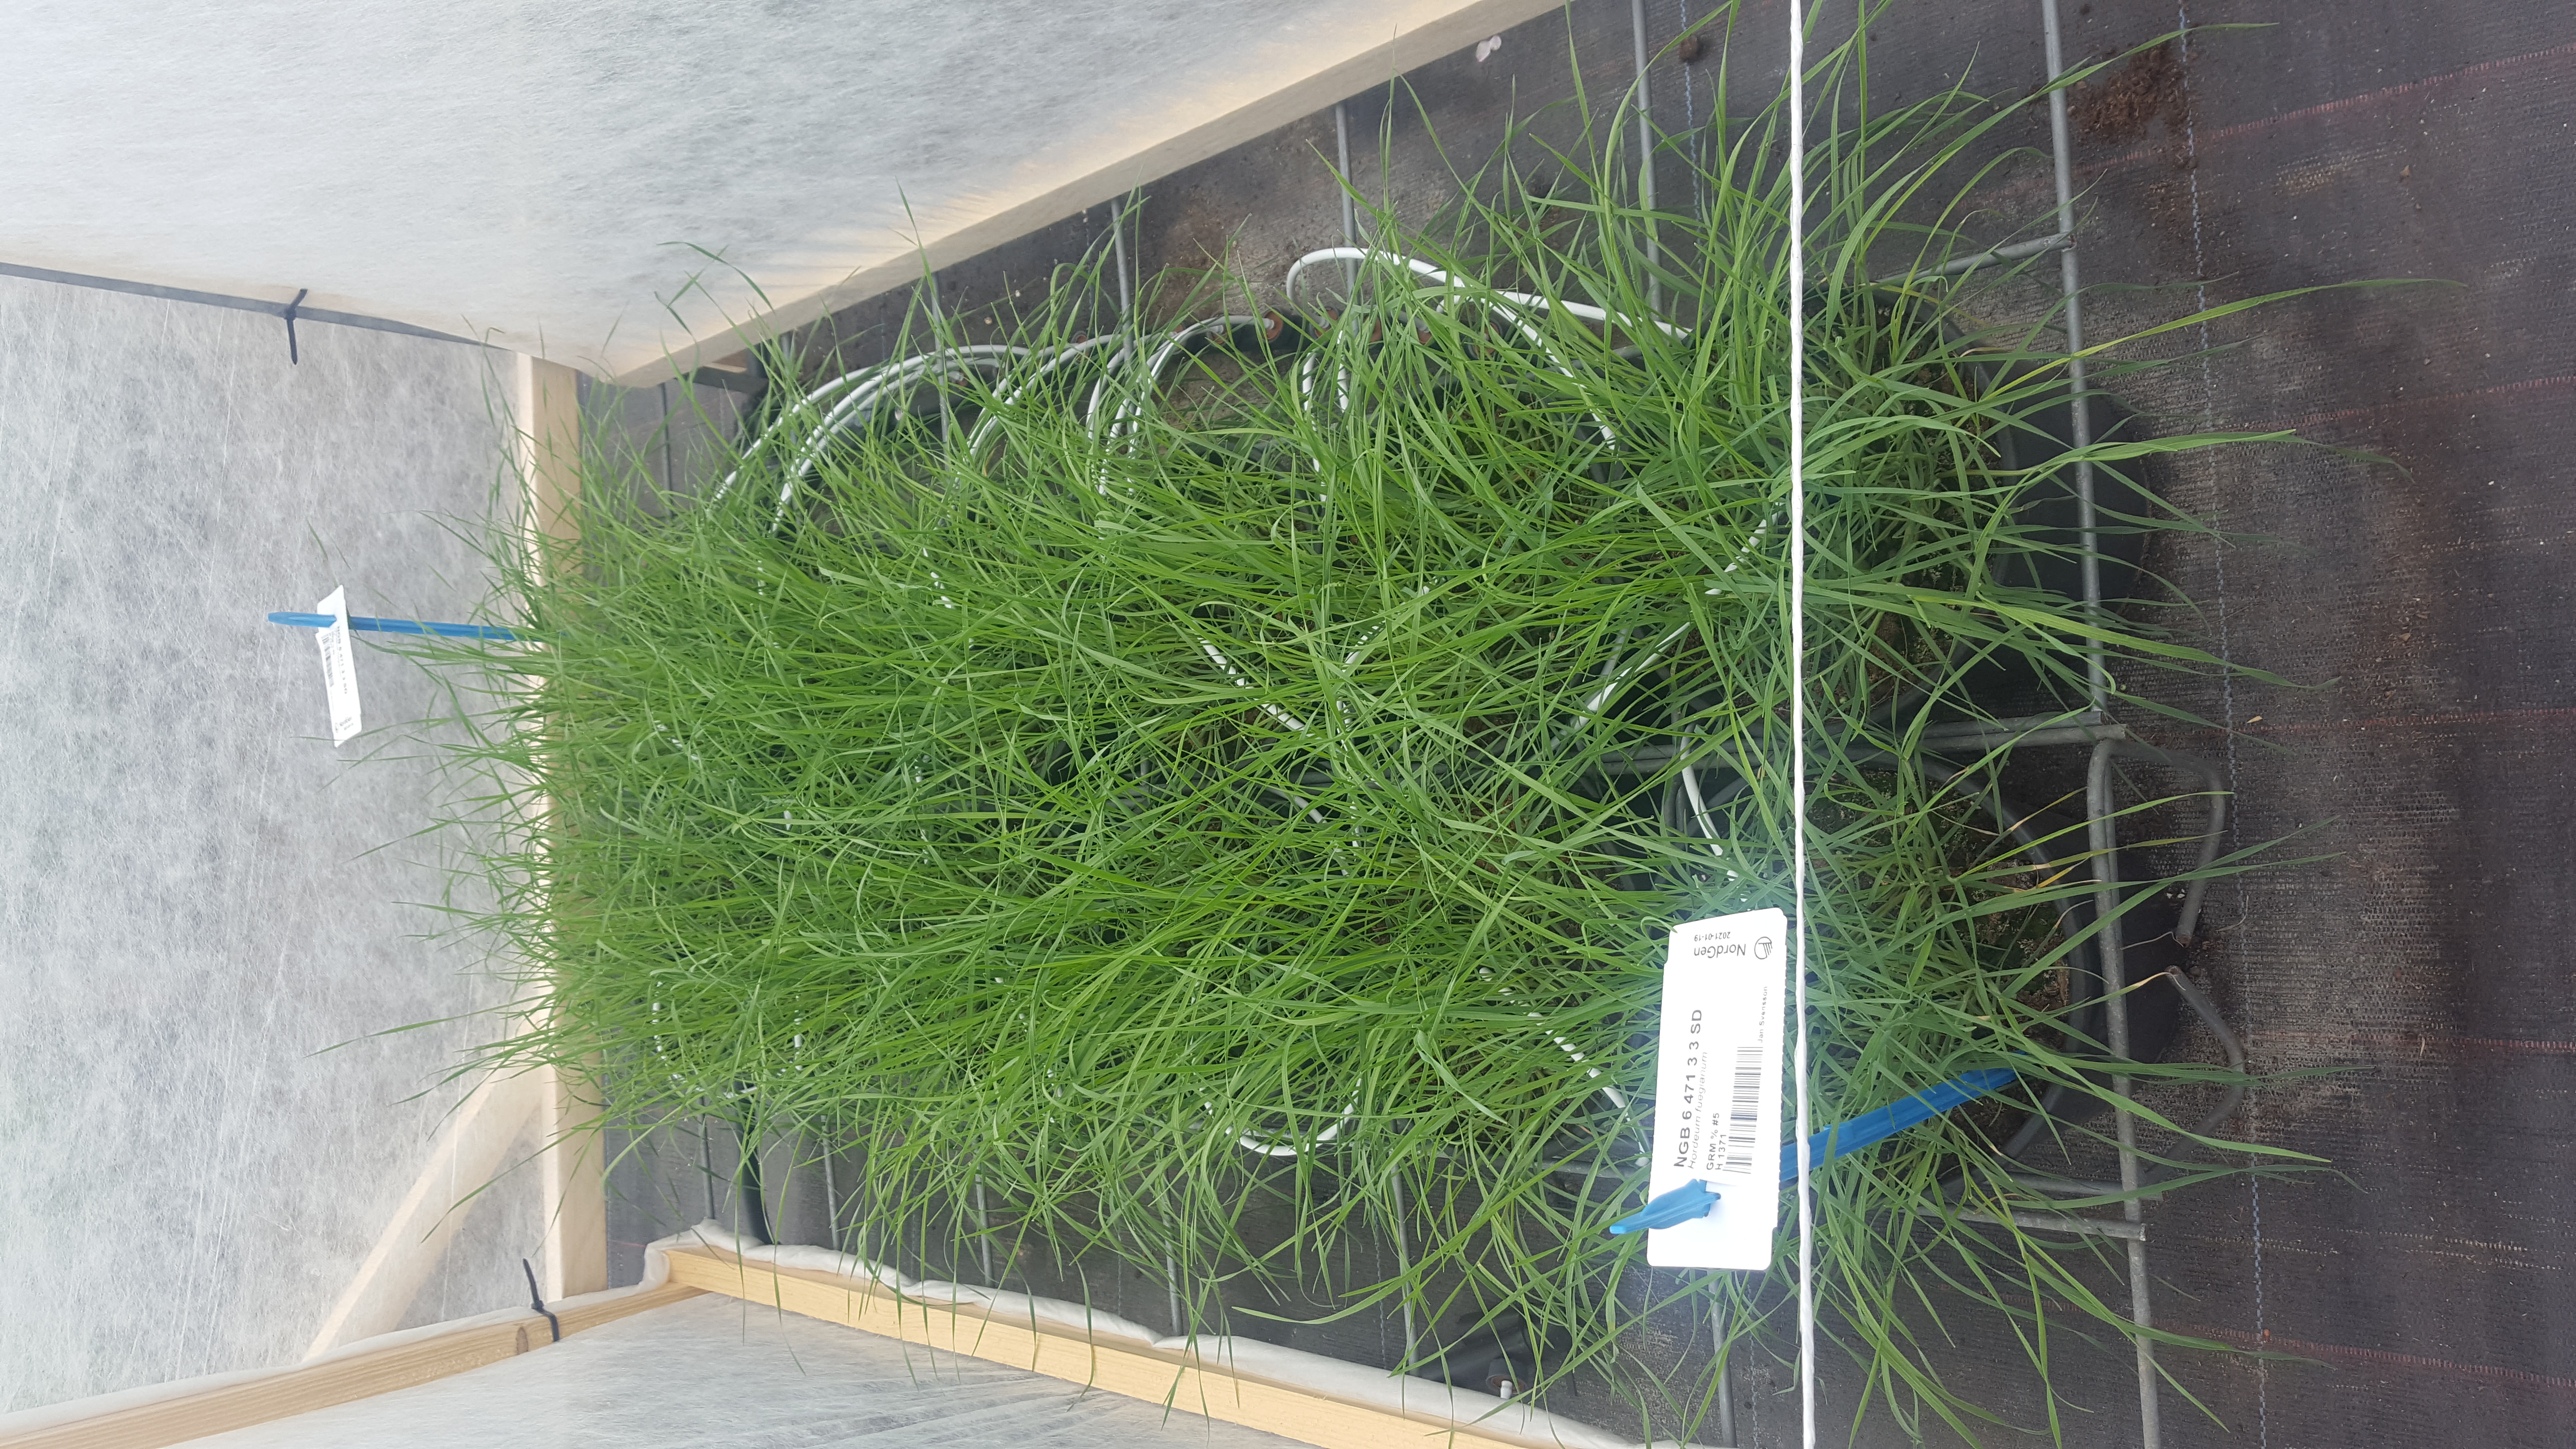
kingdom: Plantae
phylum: Tracheophyta
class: Liliopsida
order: Poales
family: Poaceae
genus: Hordeum
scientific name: Hordeum fuegianum
